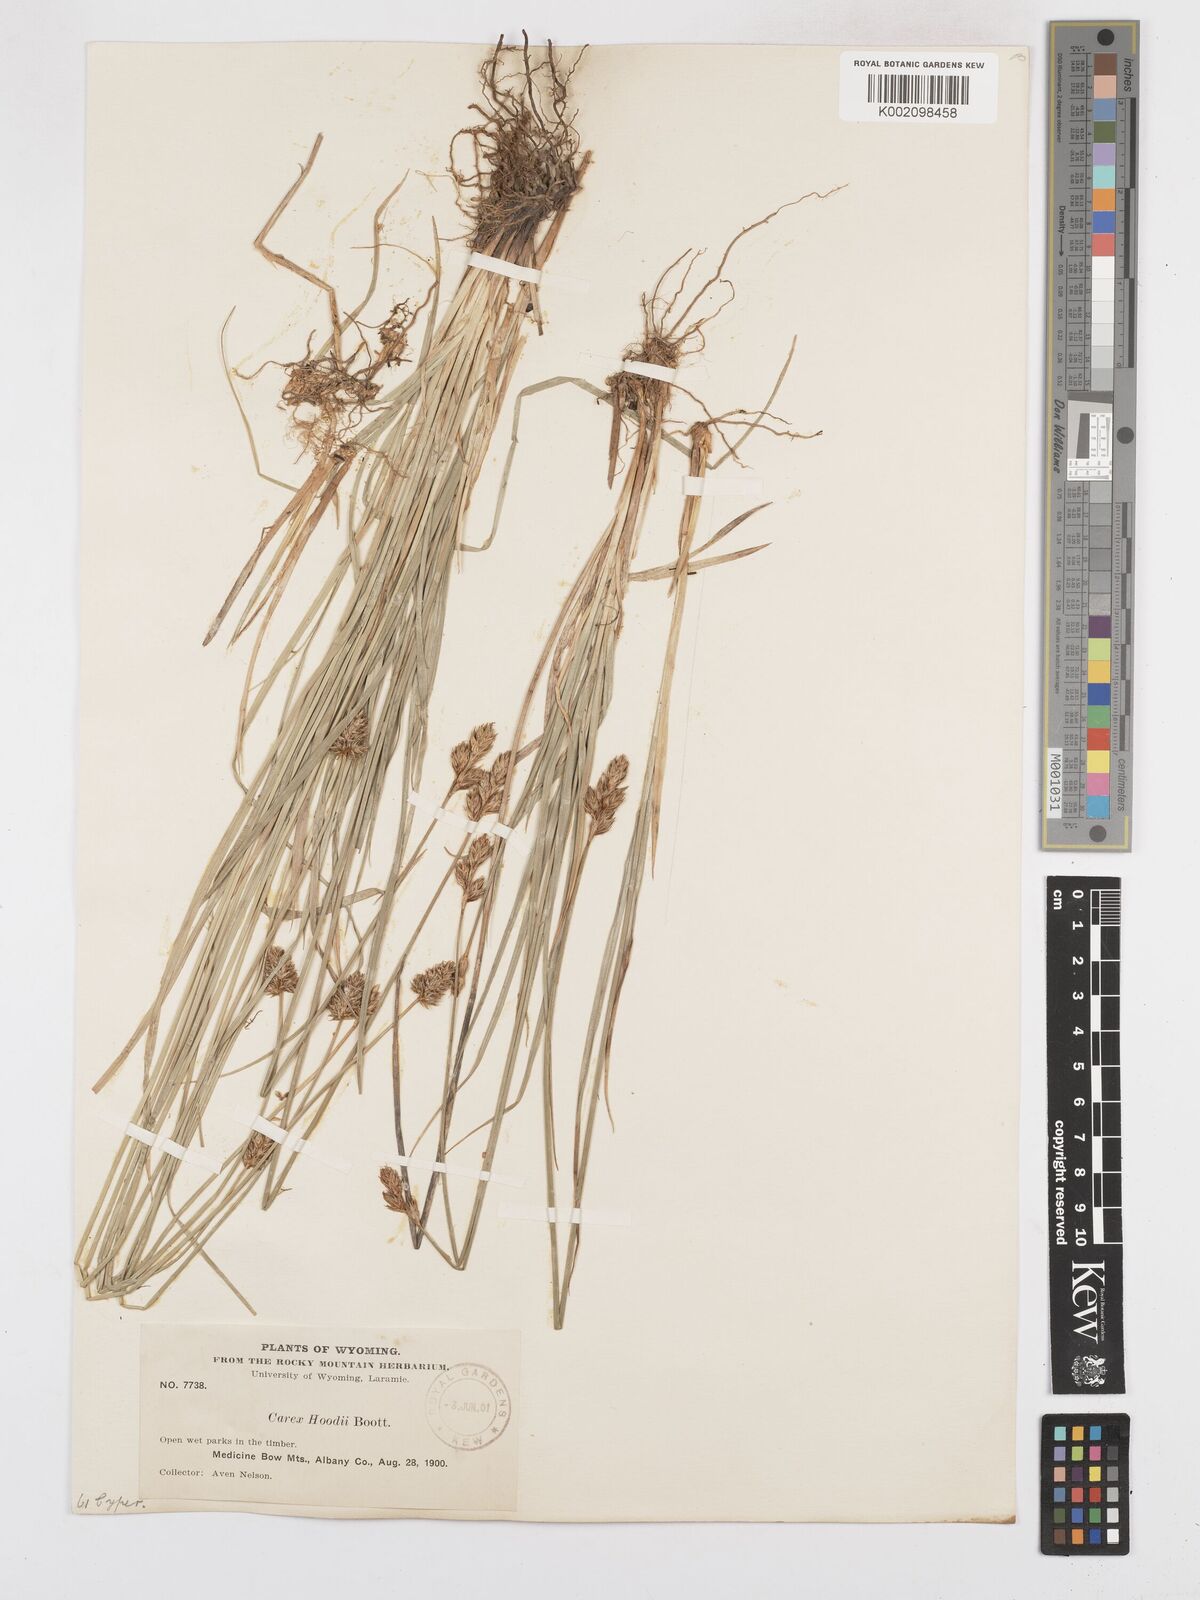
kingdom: Plantae
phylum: Tracheophyta
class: Liliopsida
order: Poales
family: Cyperaceae
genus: Carex
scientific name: Carex hoodii
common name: Hood's sedge
